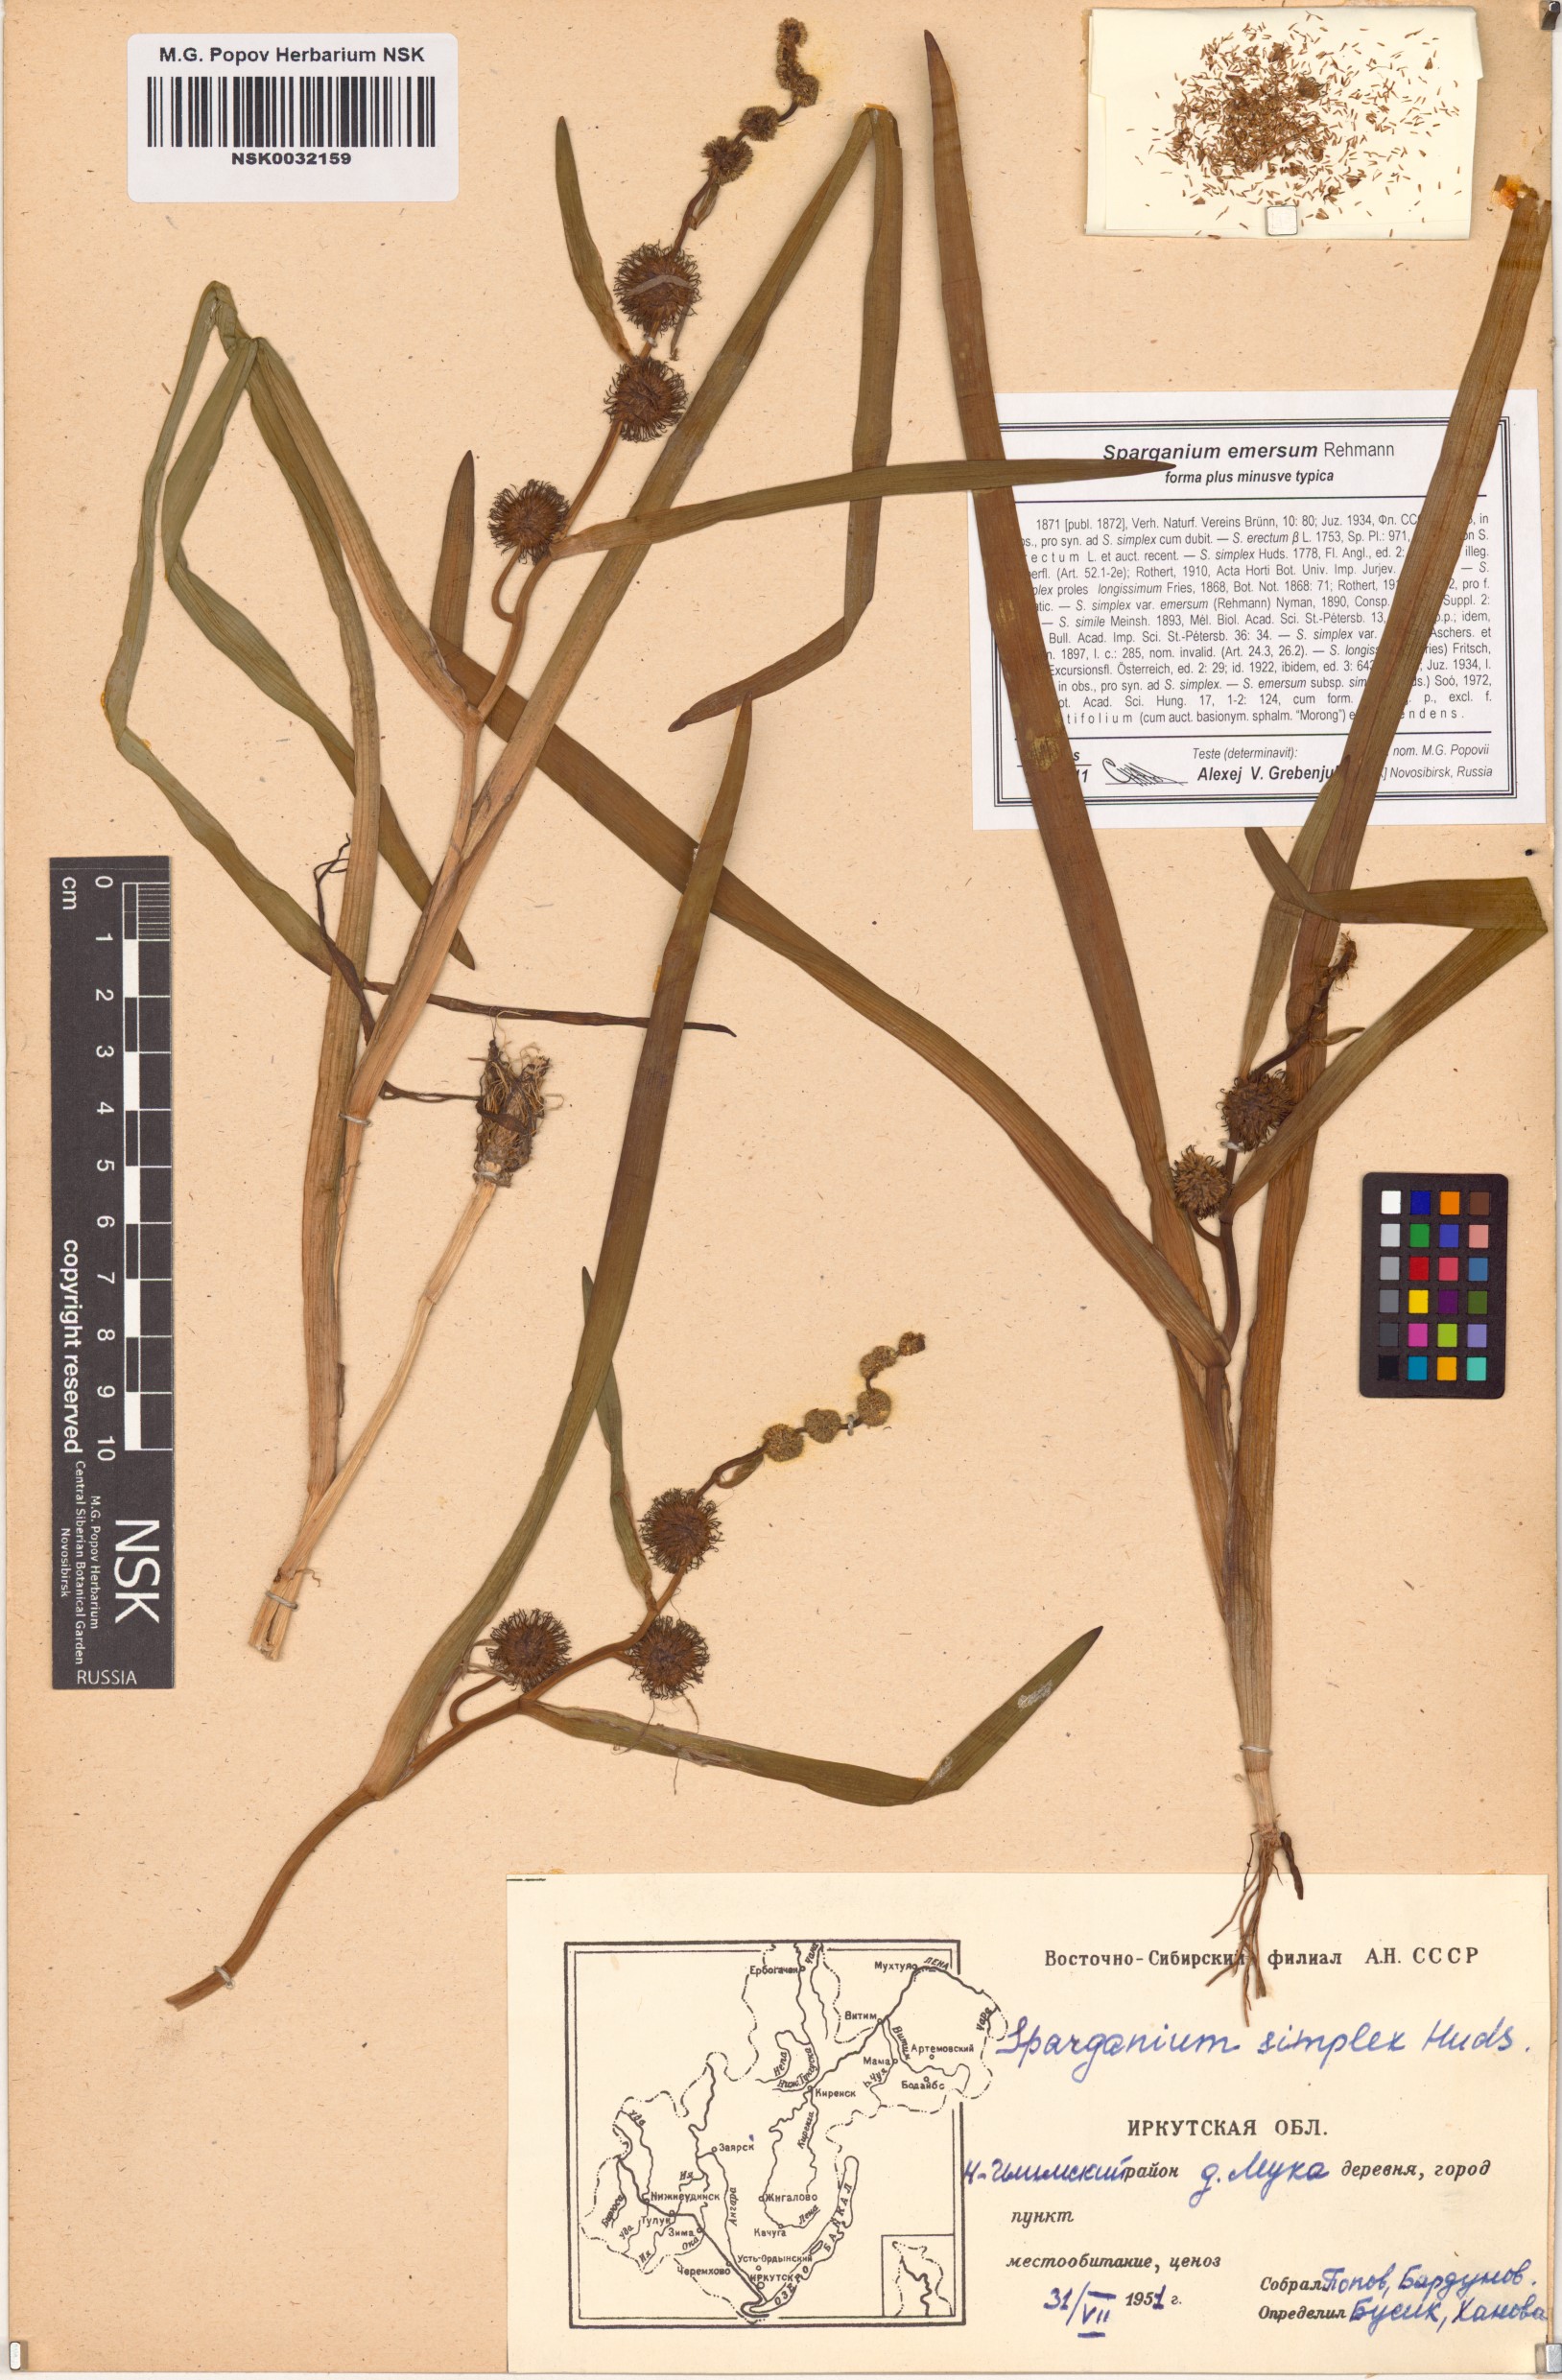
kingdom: Plantae
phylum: Tracheophyta
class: Liliopsida
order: Poales
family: Typhaceae
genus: Sparganium
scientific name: Sparganium emersum
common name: Unbranched bur-reed
